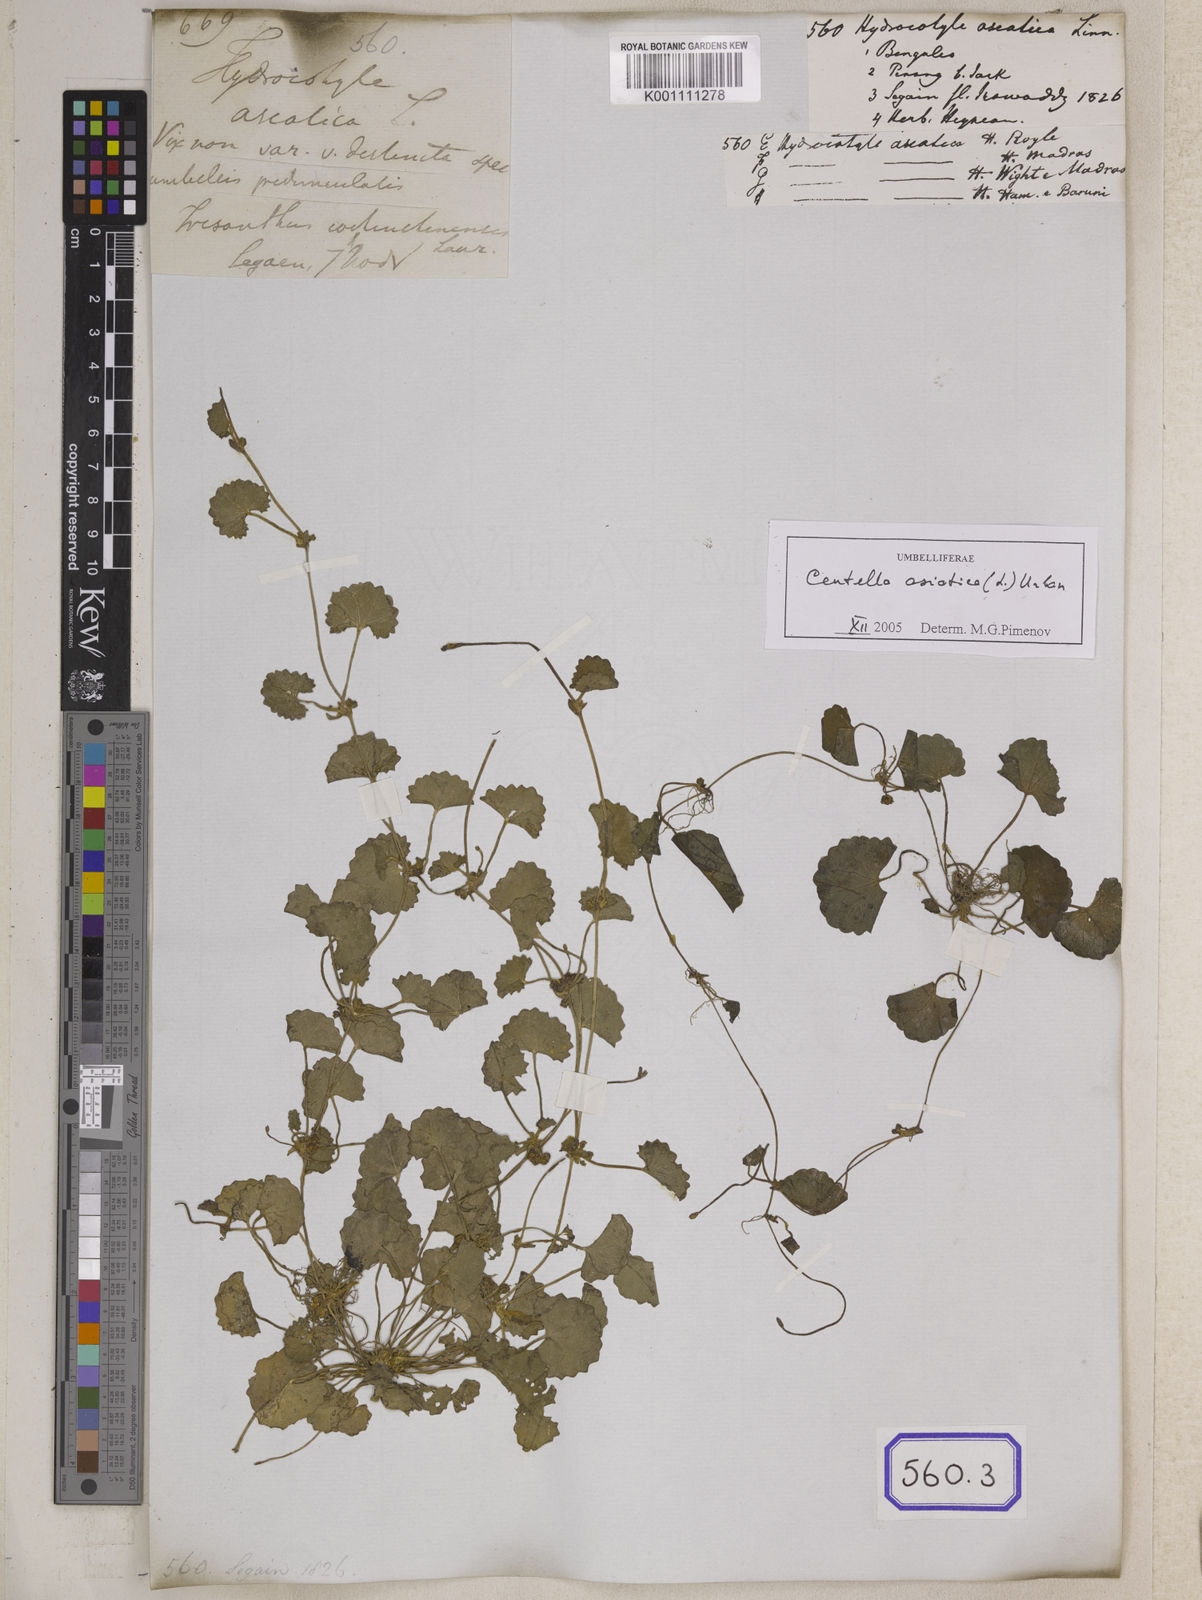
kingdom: Plantae
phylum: Tracheophyta
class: Magnoliopsida
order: Apiales
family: Apiaceae
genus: Centella
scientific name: Centella asiatica
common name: Spadeleaf
